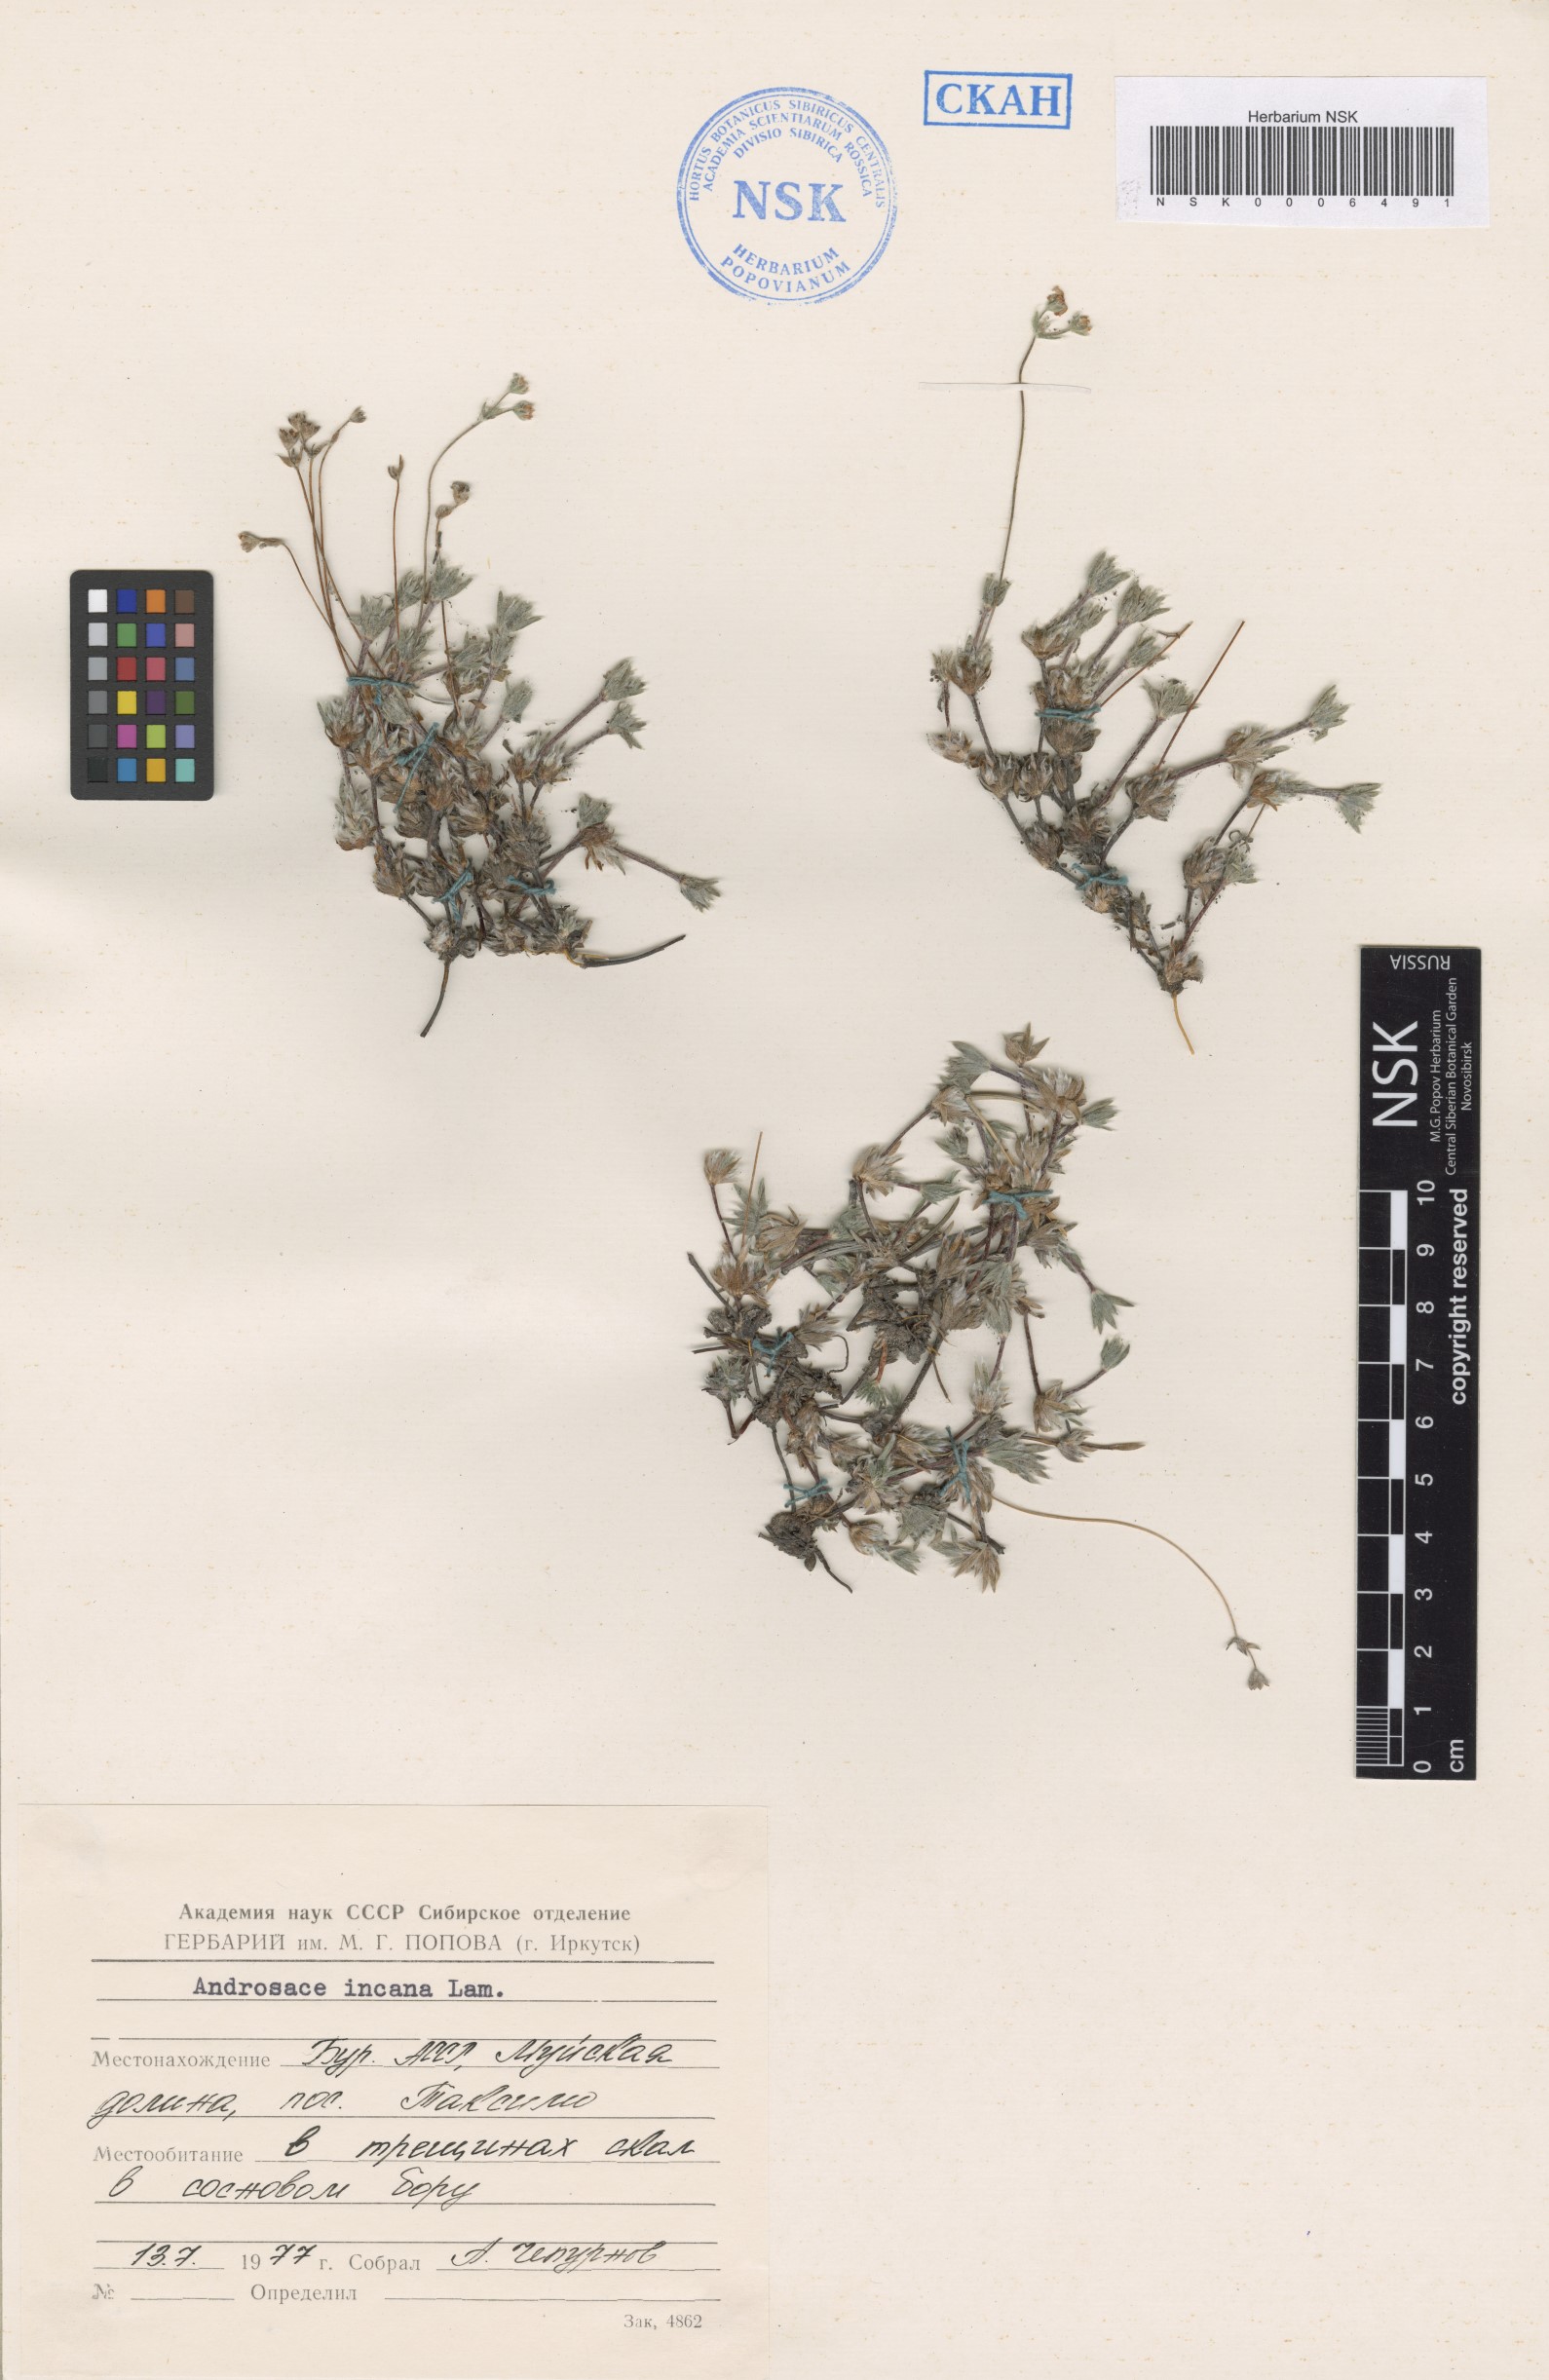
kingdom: Plantae
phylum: Tracheophyta
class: Magnoliopsida
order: Ericales
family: Primulaceae
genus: Androsace
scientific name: Androsace incana
